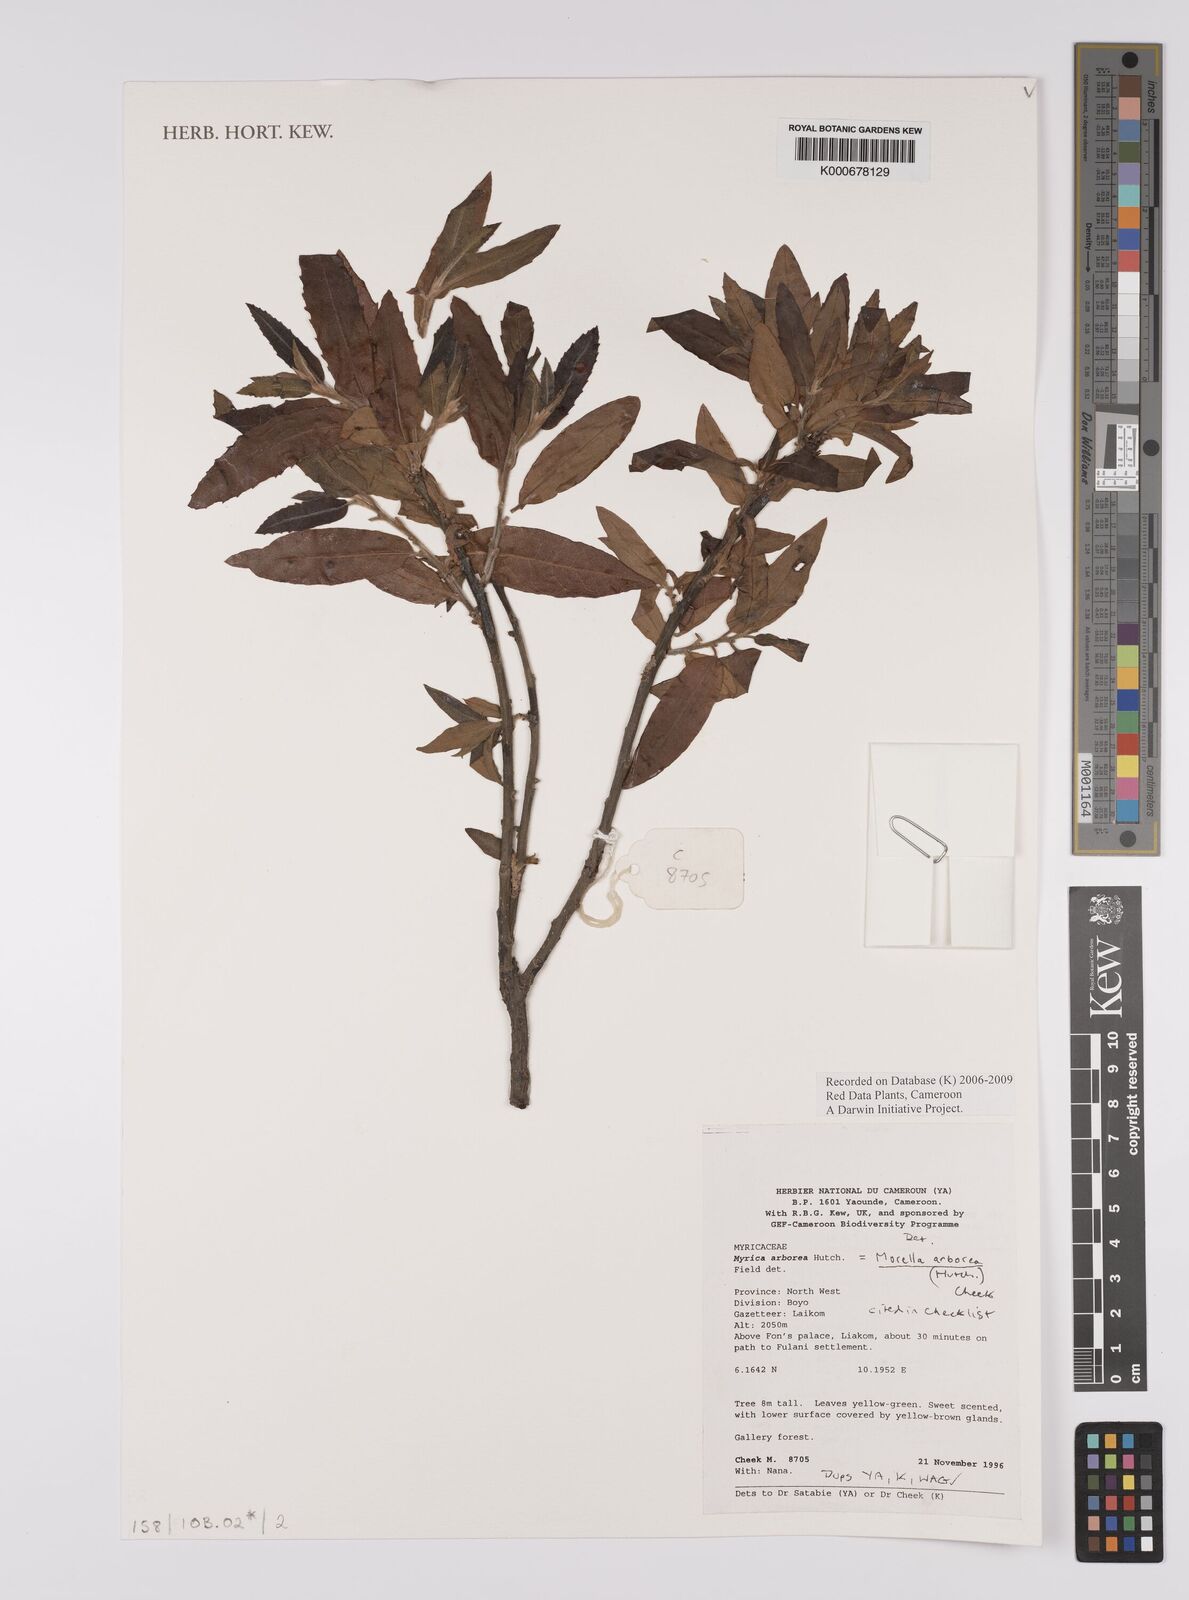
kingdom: Plantae
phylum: Tracheophyta
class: Magnoliopsida
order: Fagales
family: Myricaceae
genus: Morella
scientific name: Morella arborea
